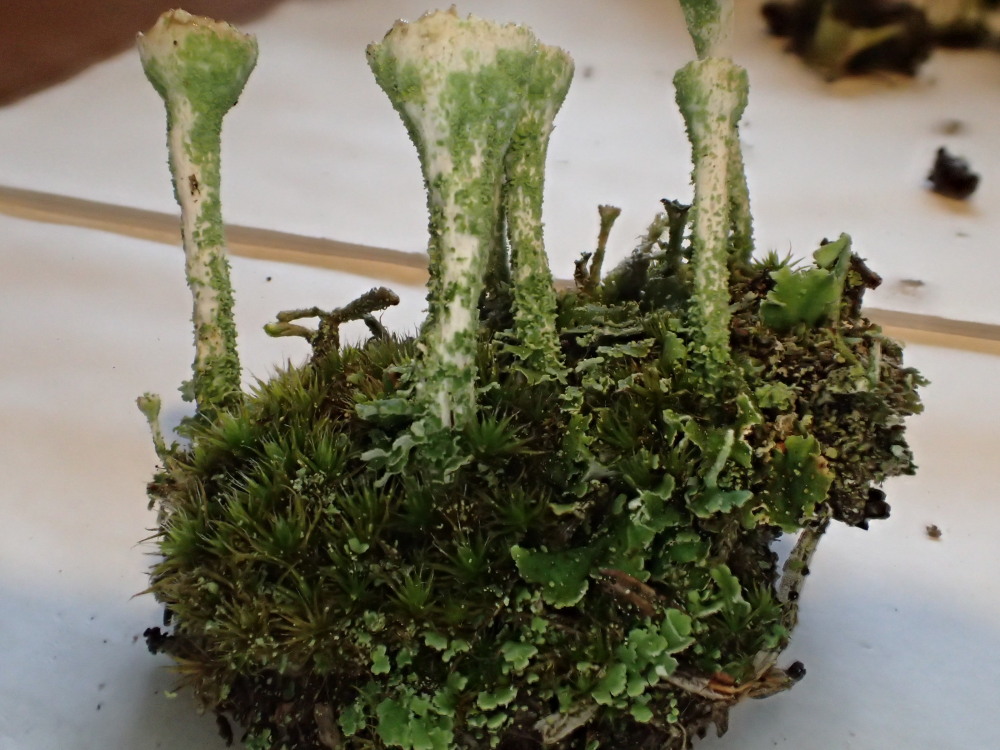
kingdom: Fungi
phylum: Ascomycota
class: Lecanoromycetes
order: Lecanorales
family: Cladoniaceae
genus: Cladonia
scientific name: Cladonia fimbriata
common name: bleggrøn bægerlav
